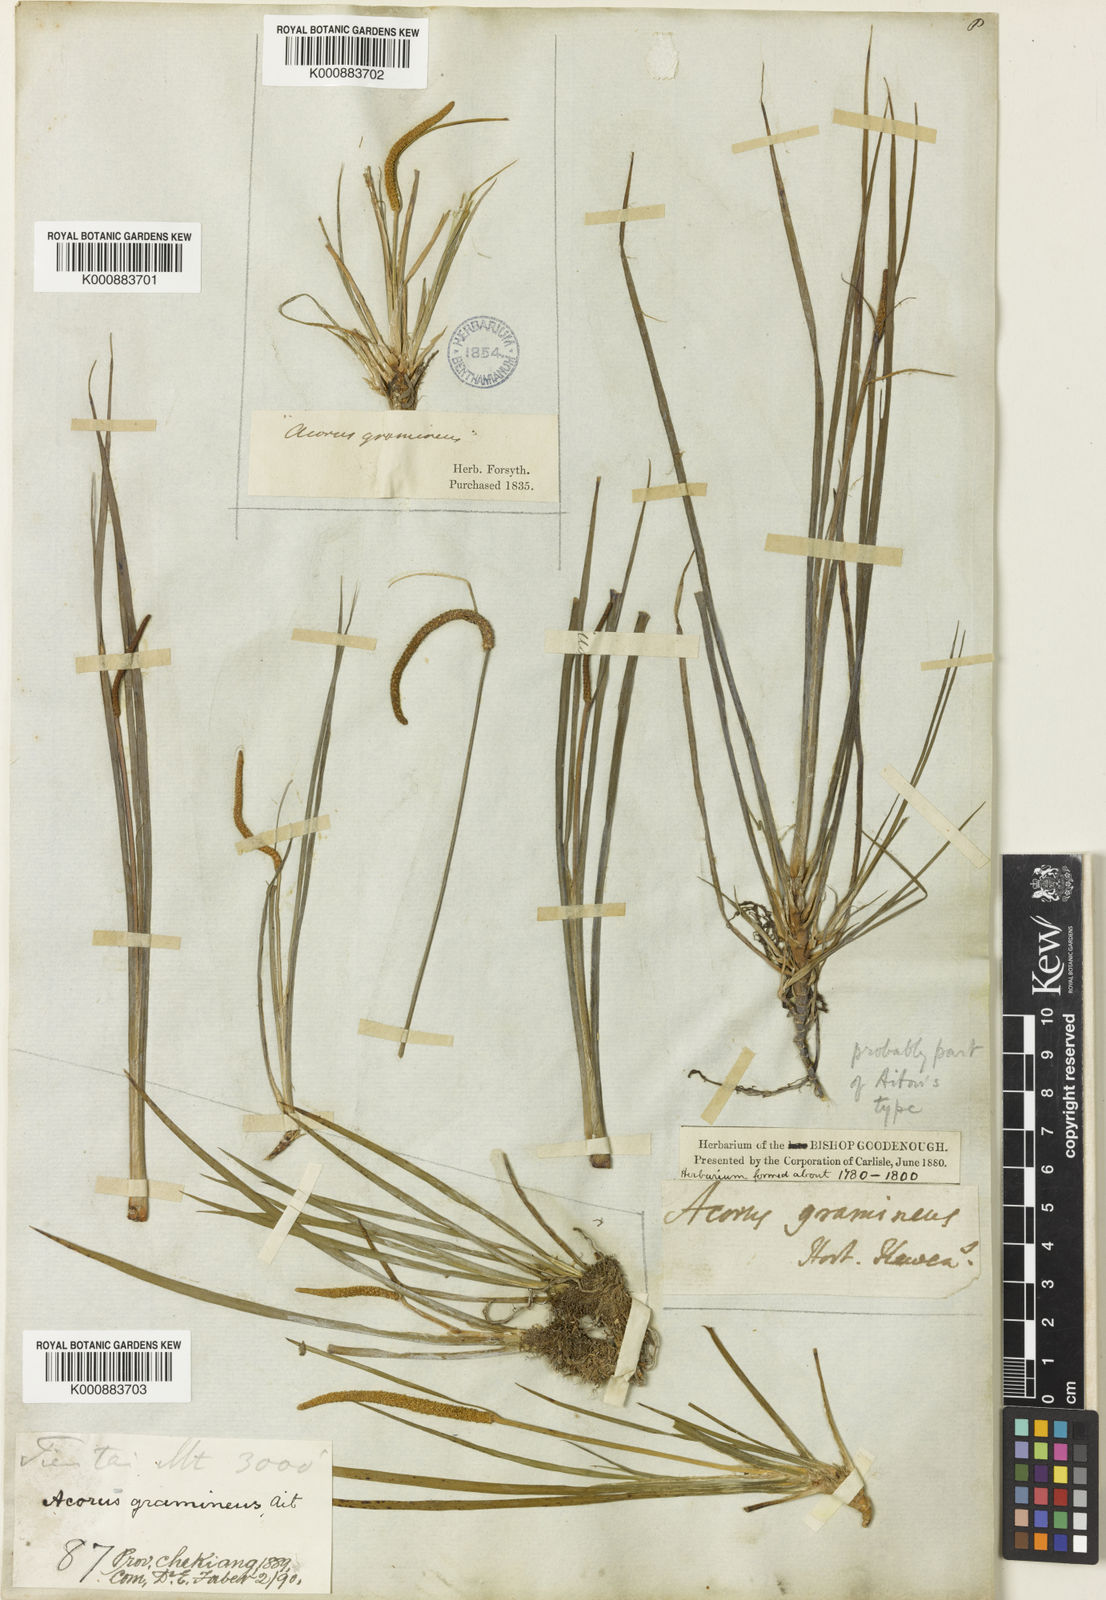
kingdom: Plantae
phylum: Tracheophyta
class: Liliopsida
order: Acorales
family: Acoraceae
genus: Acorus
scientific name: Acorus gramineus
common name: Slender sweet-flag
